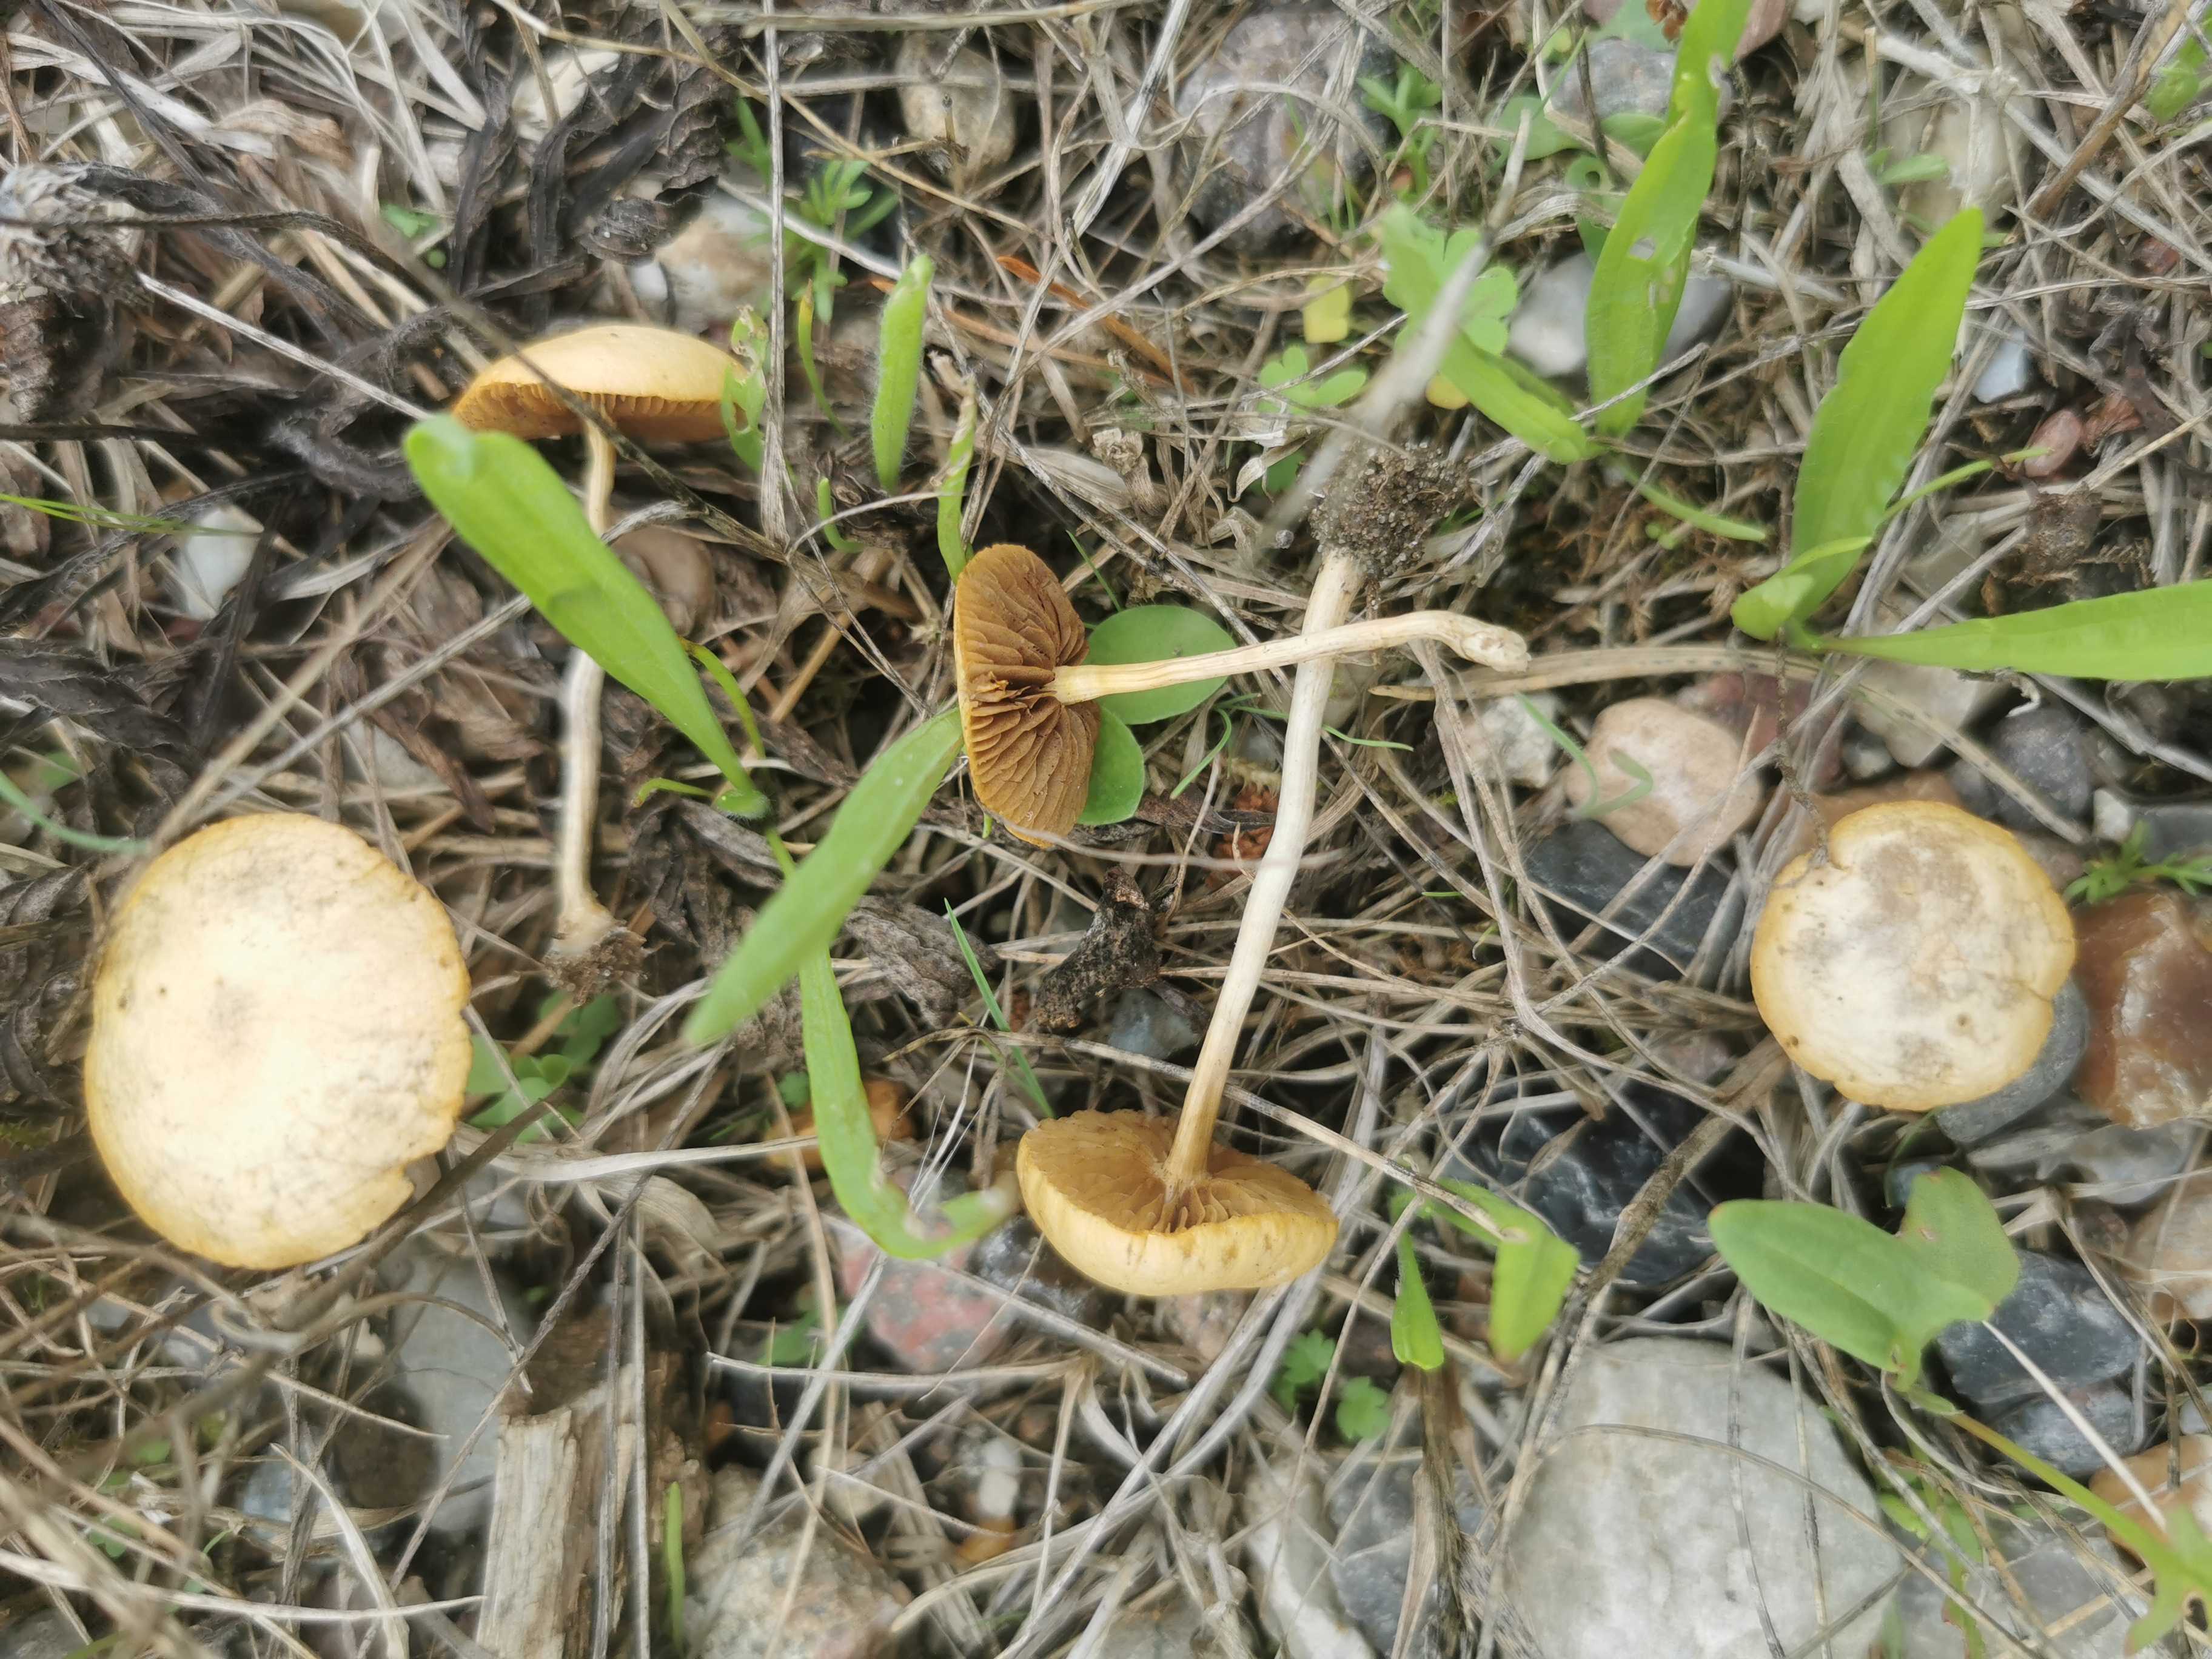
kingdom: Fungi
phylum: Basidiomycota
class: Agaricomycetes
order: Agaricales
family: Strophariaceae
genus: Agrocybe
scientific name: Agrocybe pediades
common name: almindelig agerhat
